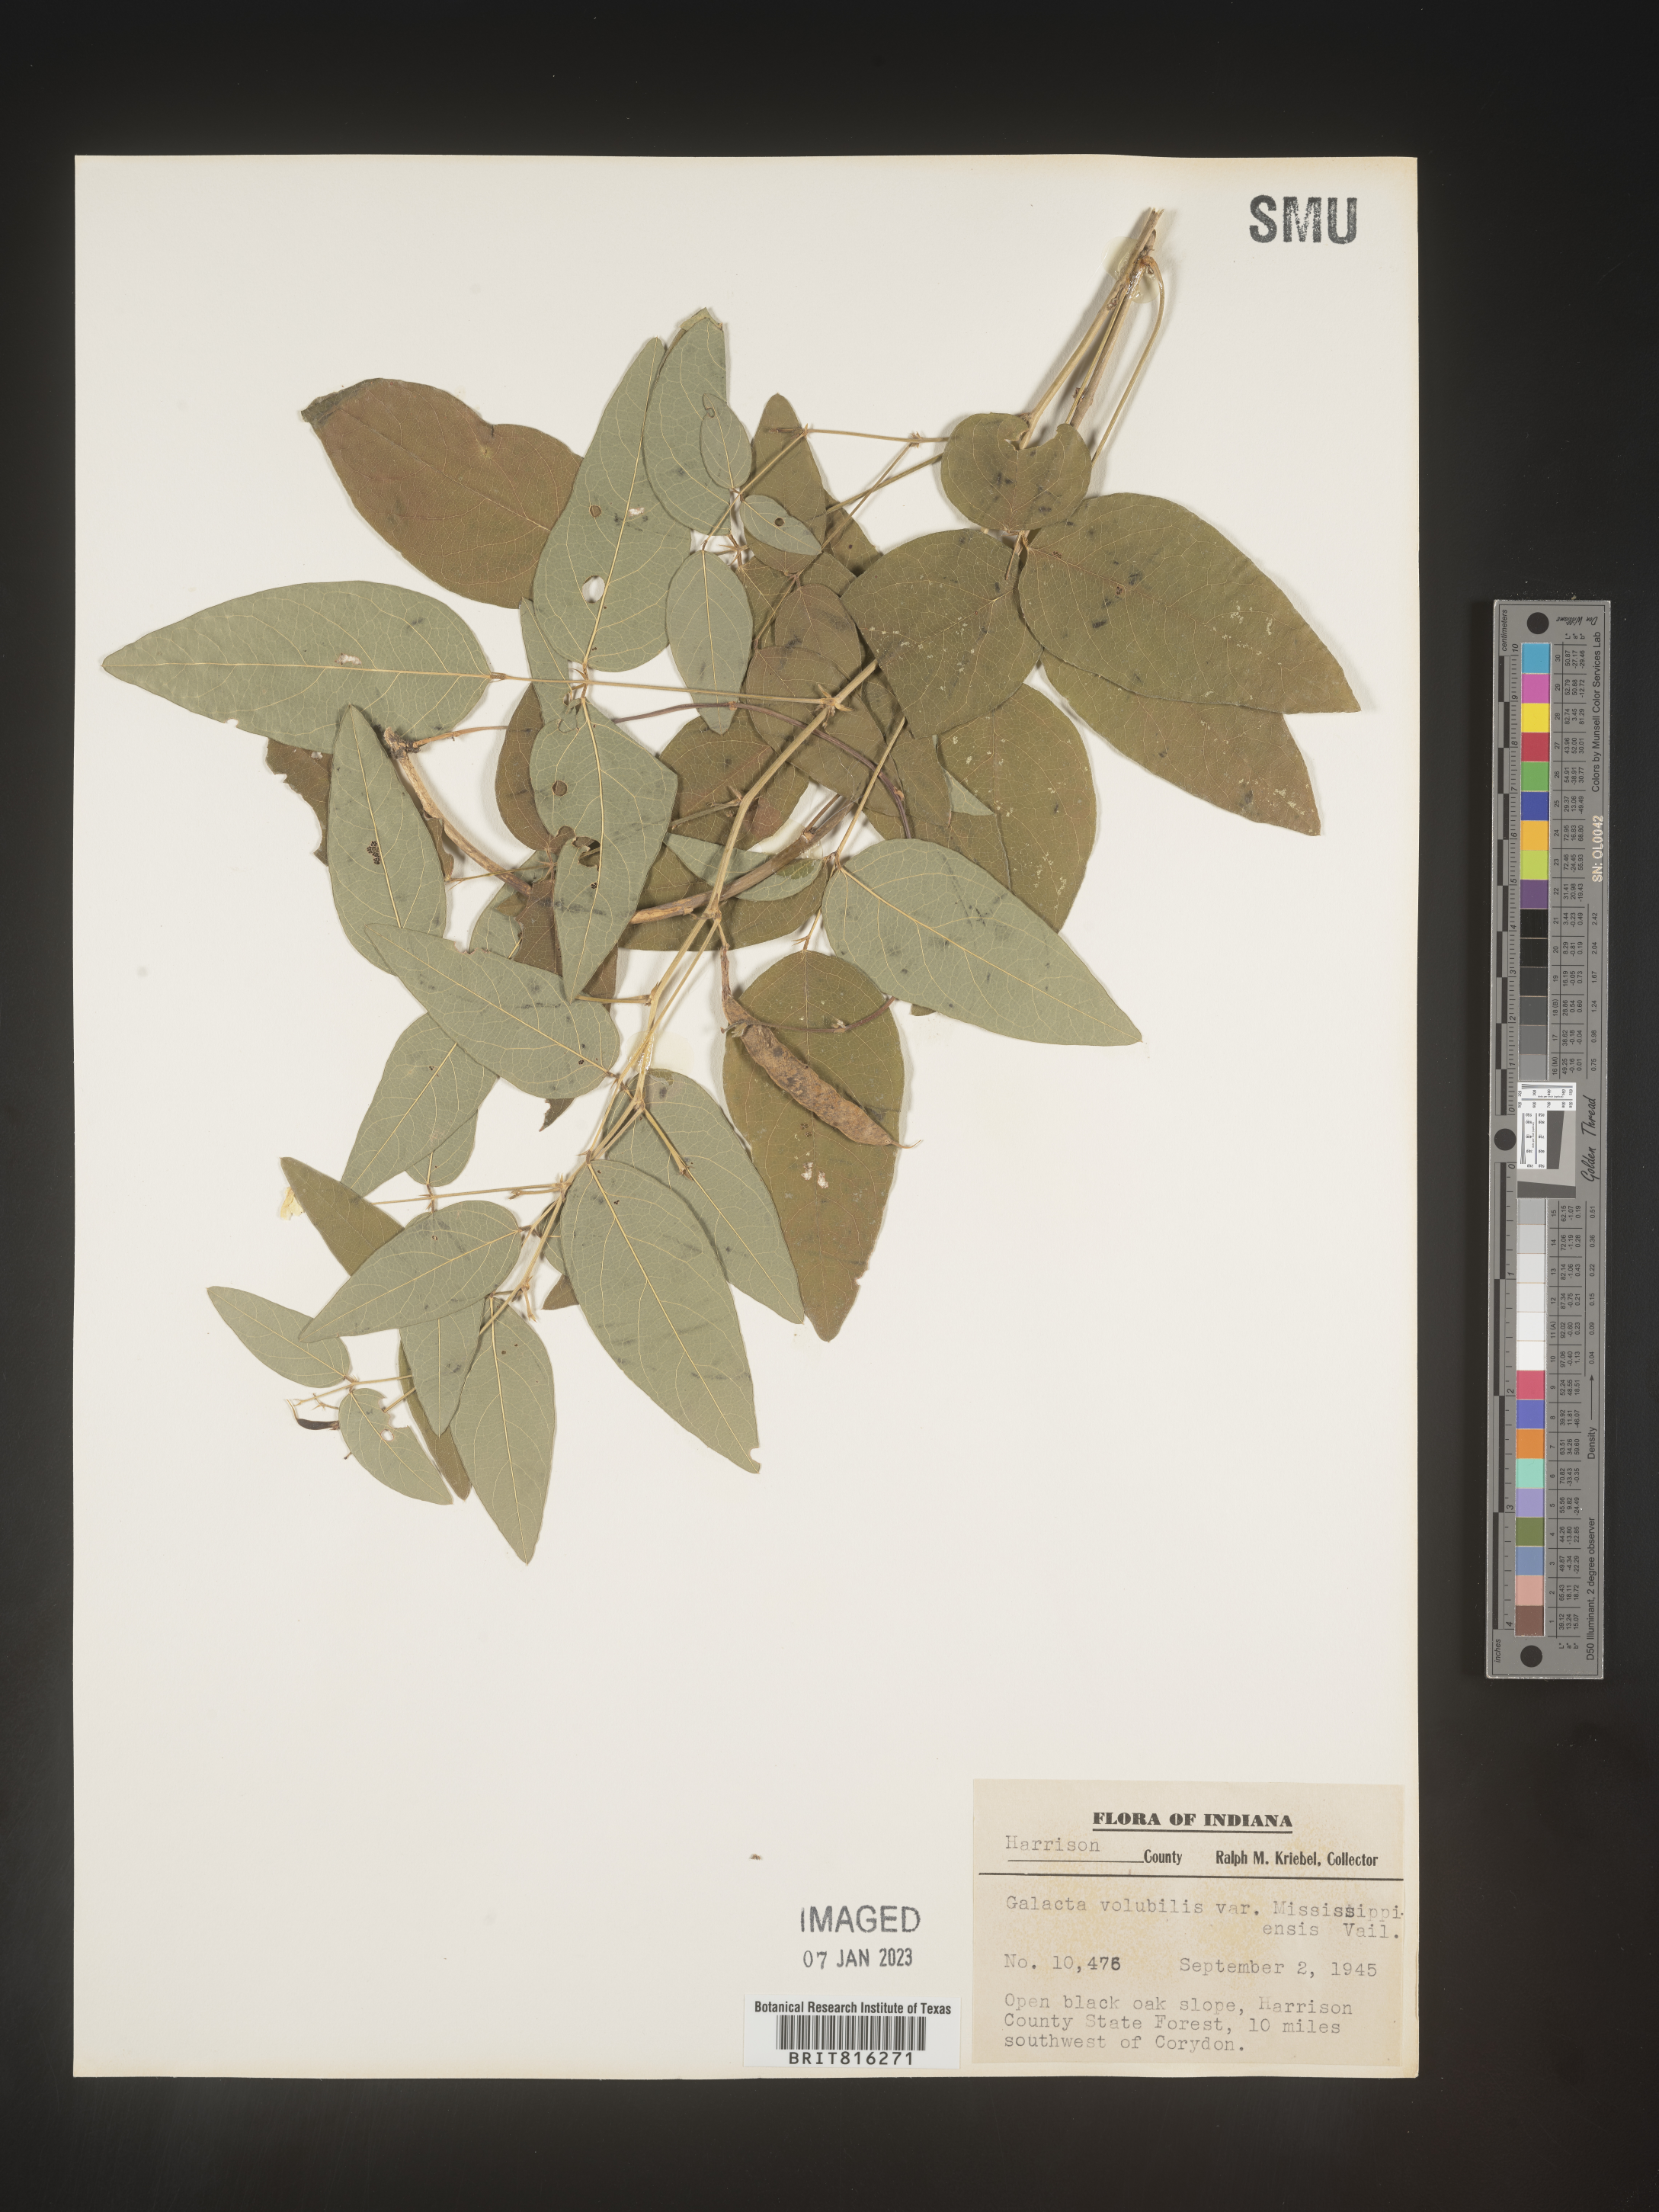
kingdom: Plantae
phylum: Tracheophyta
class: Magnoliopsida
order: Fabales
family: Fabaceae
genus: Clitoria
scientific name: Clitoria mariana
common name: Butterfly-pea
